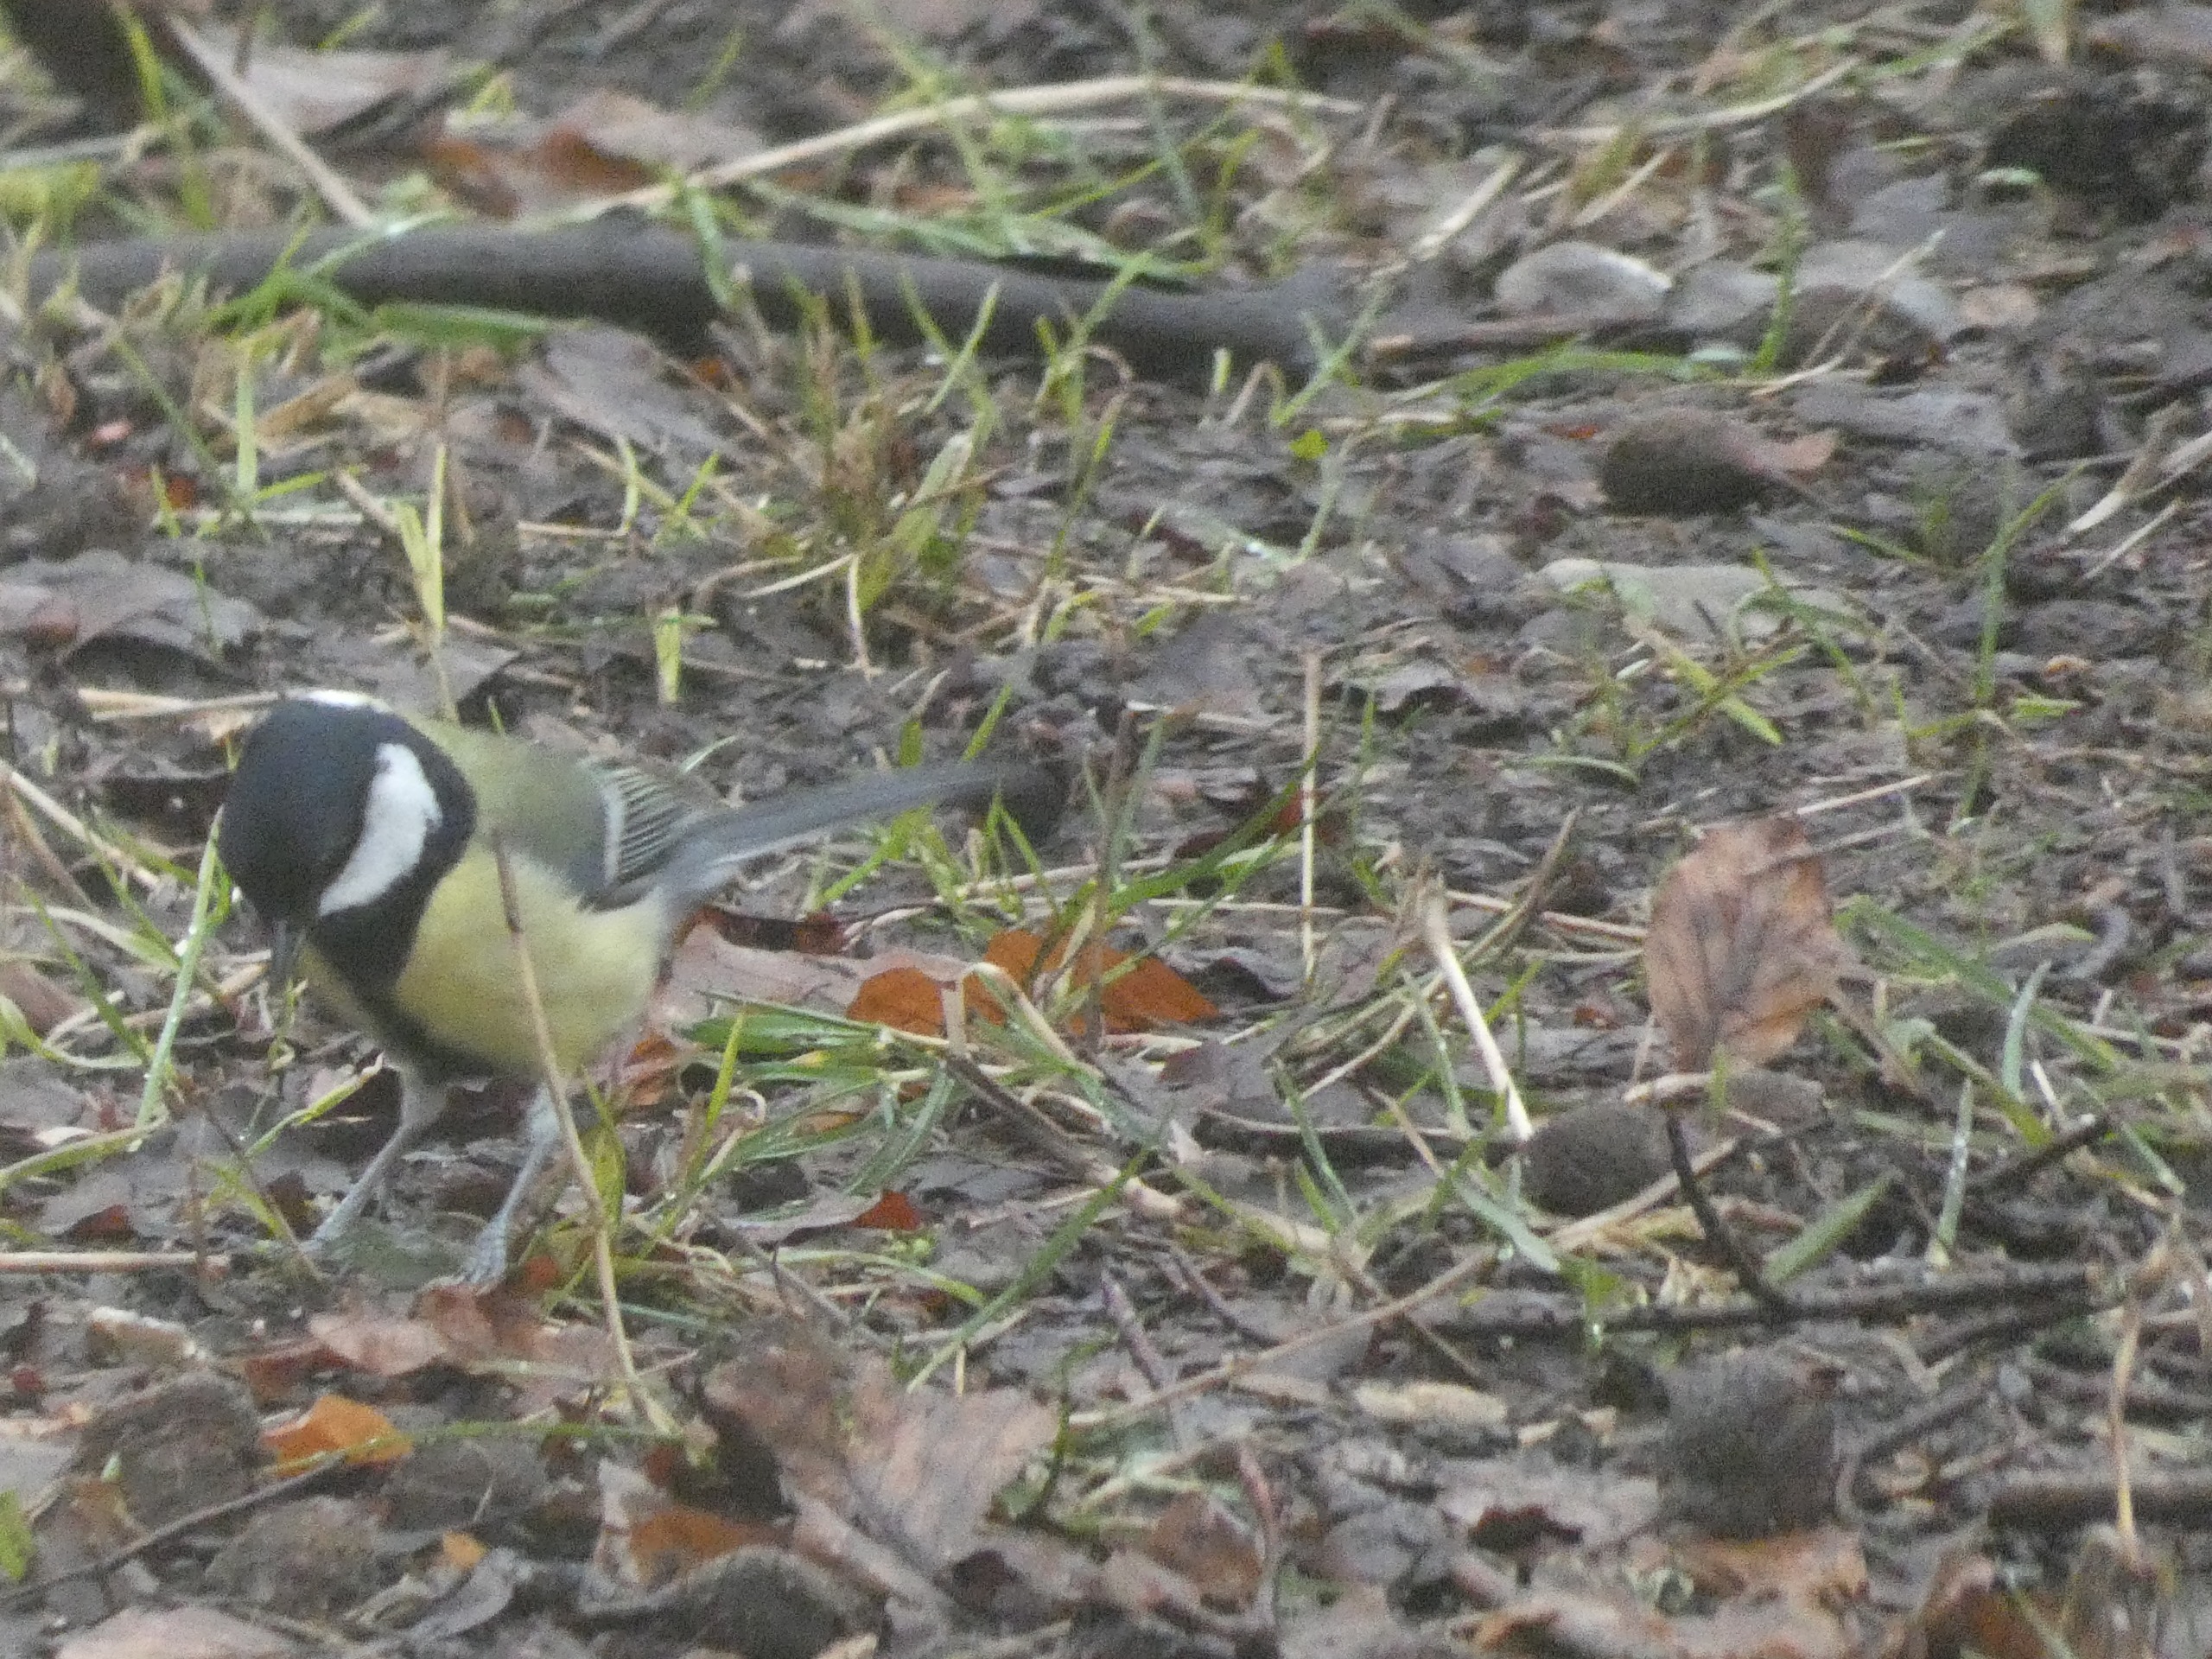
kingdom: Animalia
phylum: Chordata
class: Aves
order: Passeriformes
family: Paridae
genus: Parus
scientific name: Parus major
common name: Musvit
